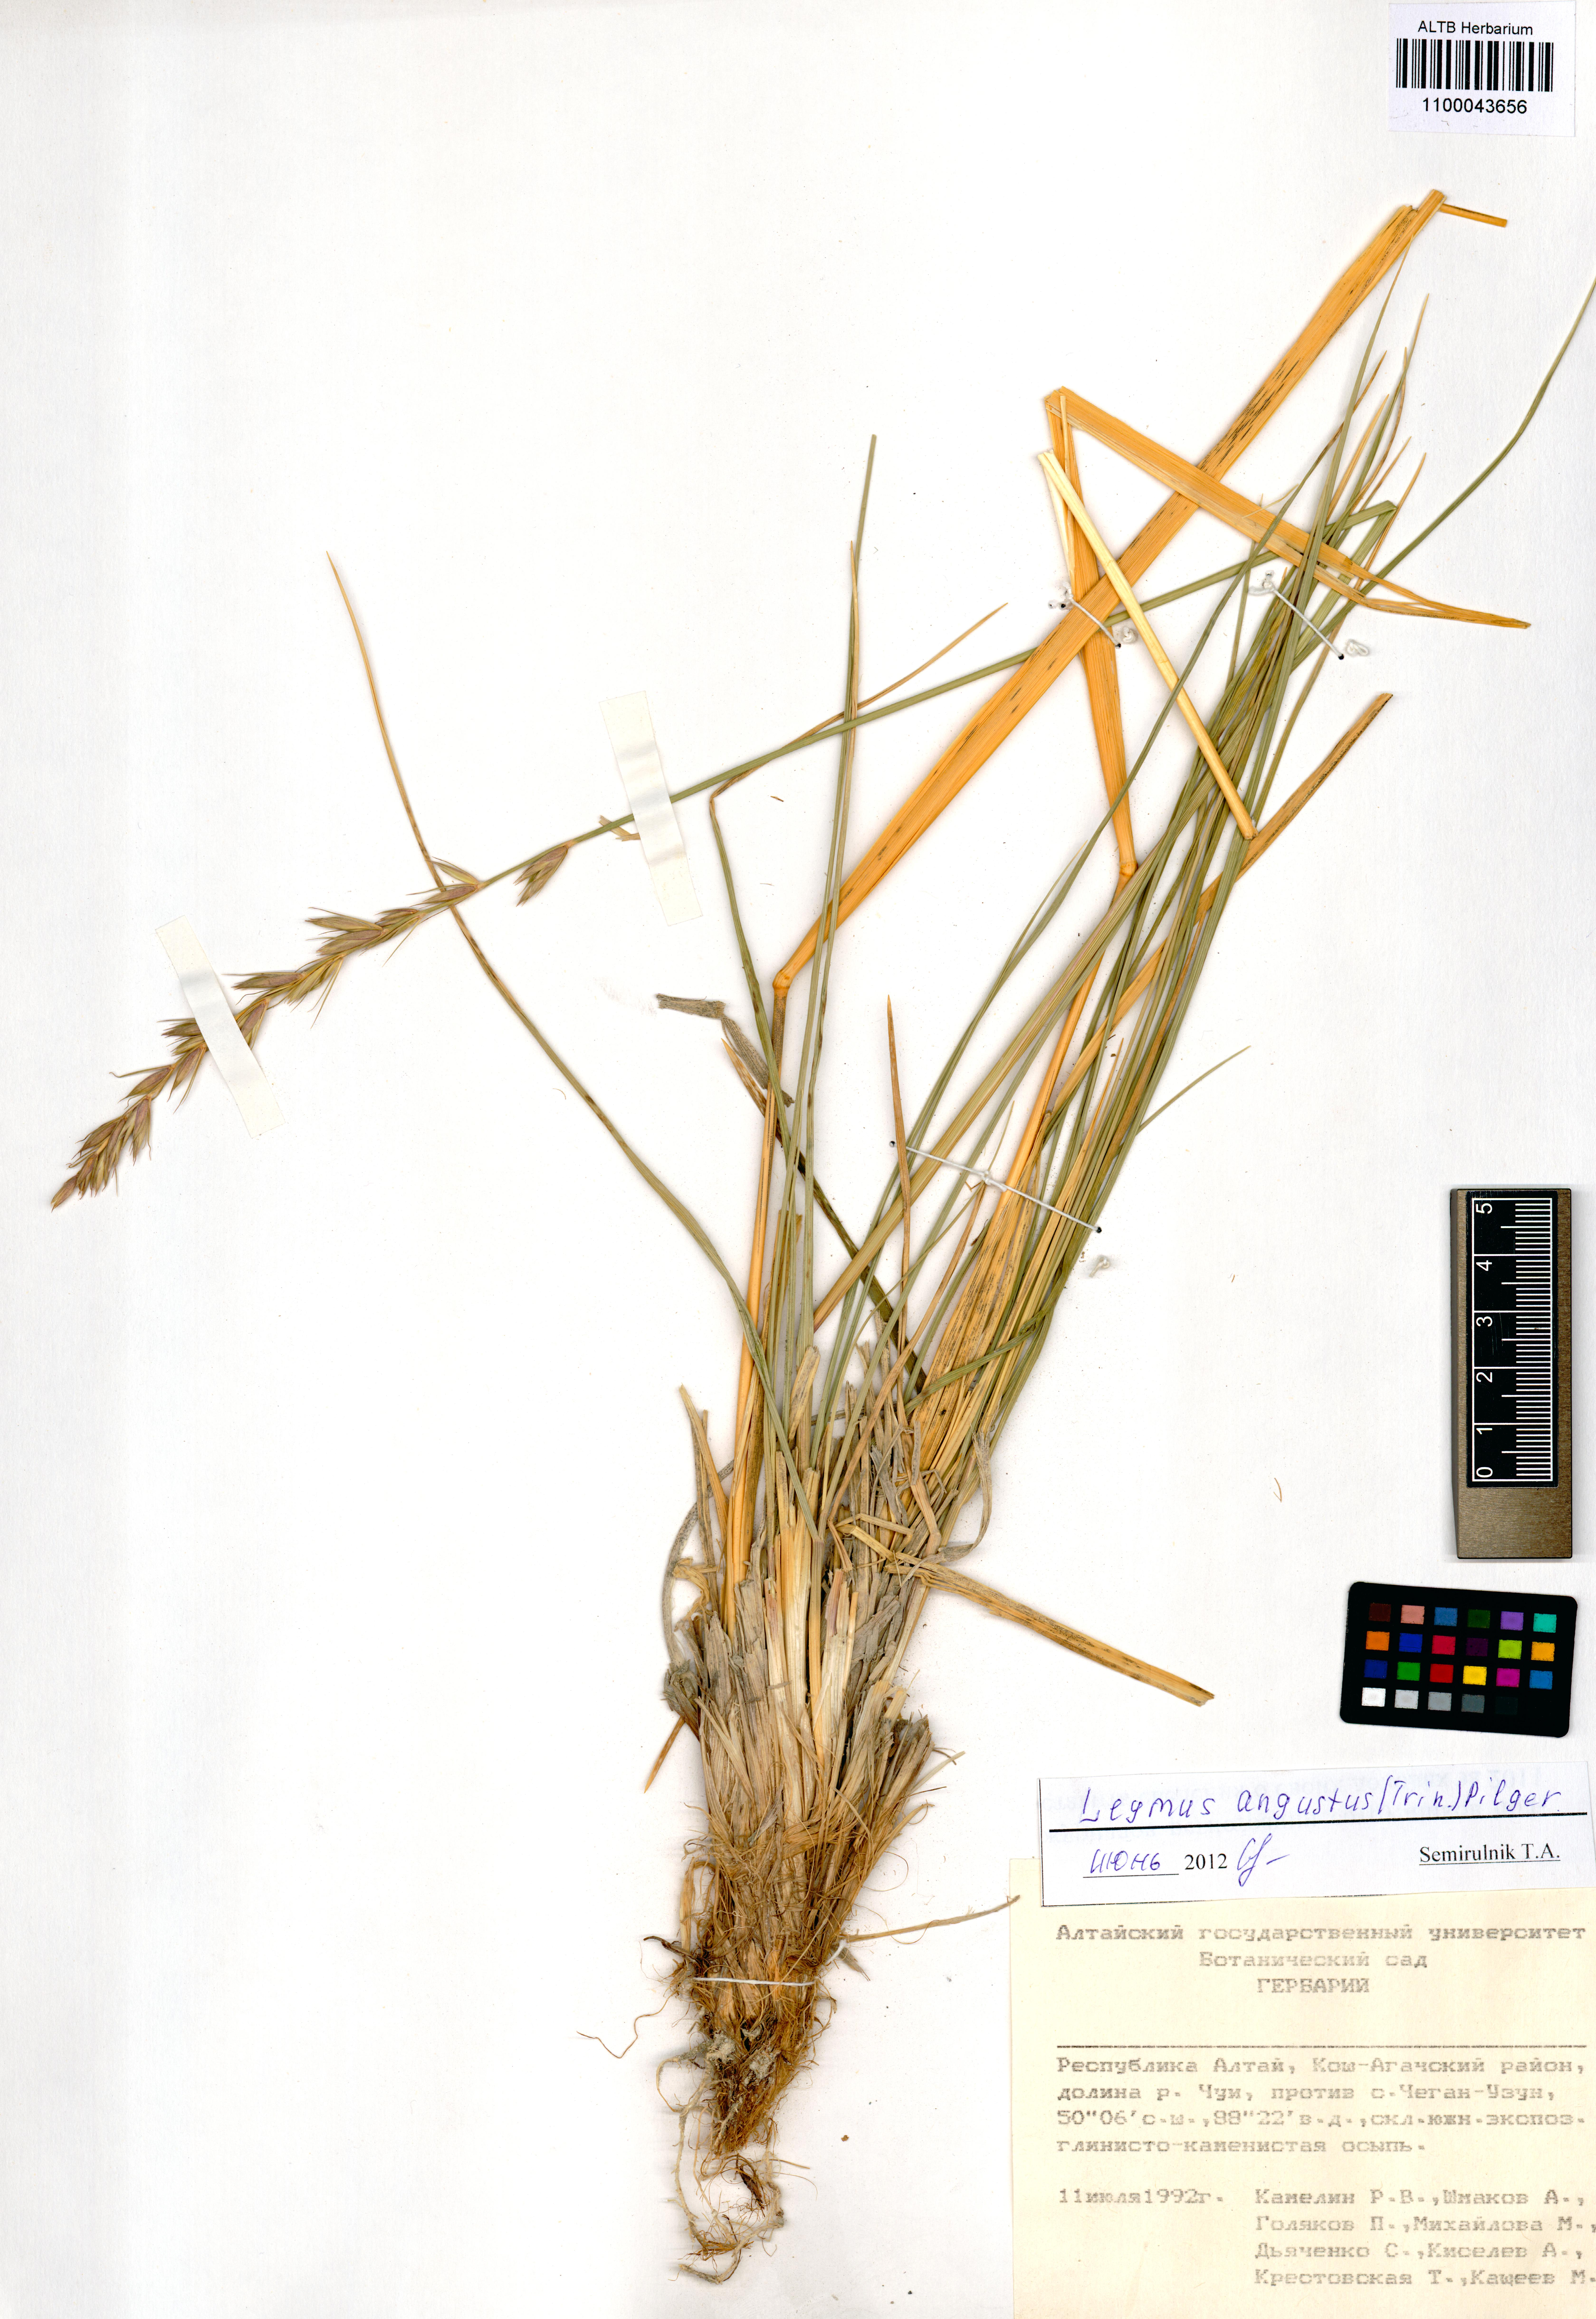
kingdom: Plantae
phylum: Tracheophyta
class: Liliopsida
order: Poales
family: Poaceae
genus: Leymus
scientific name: Leymus angustus
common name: Altai wildrye
